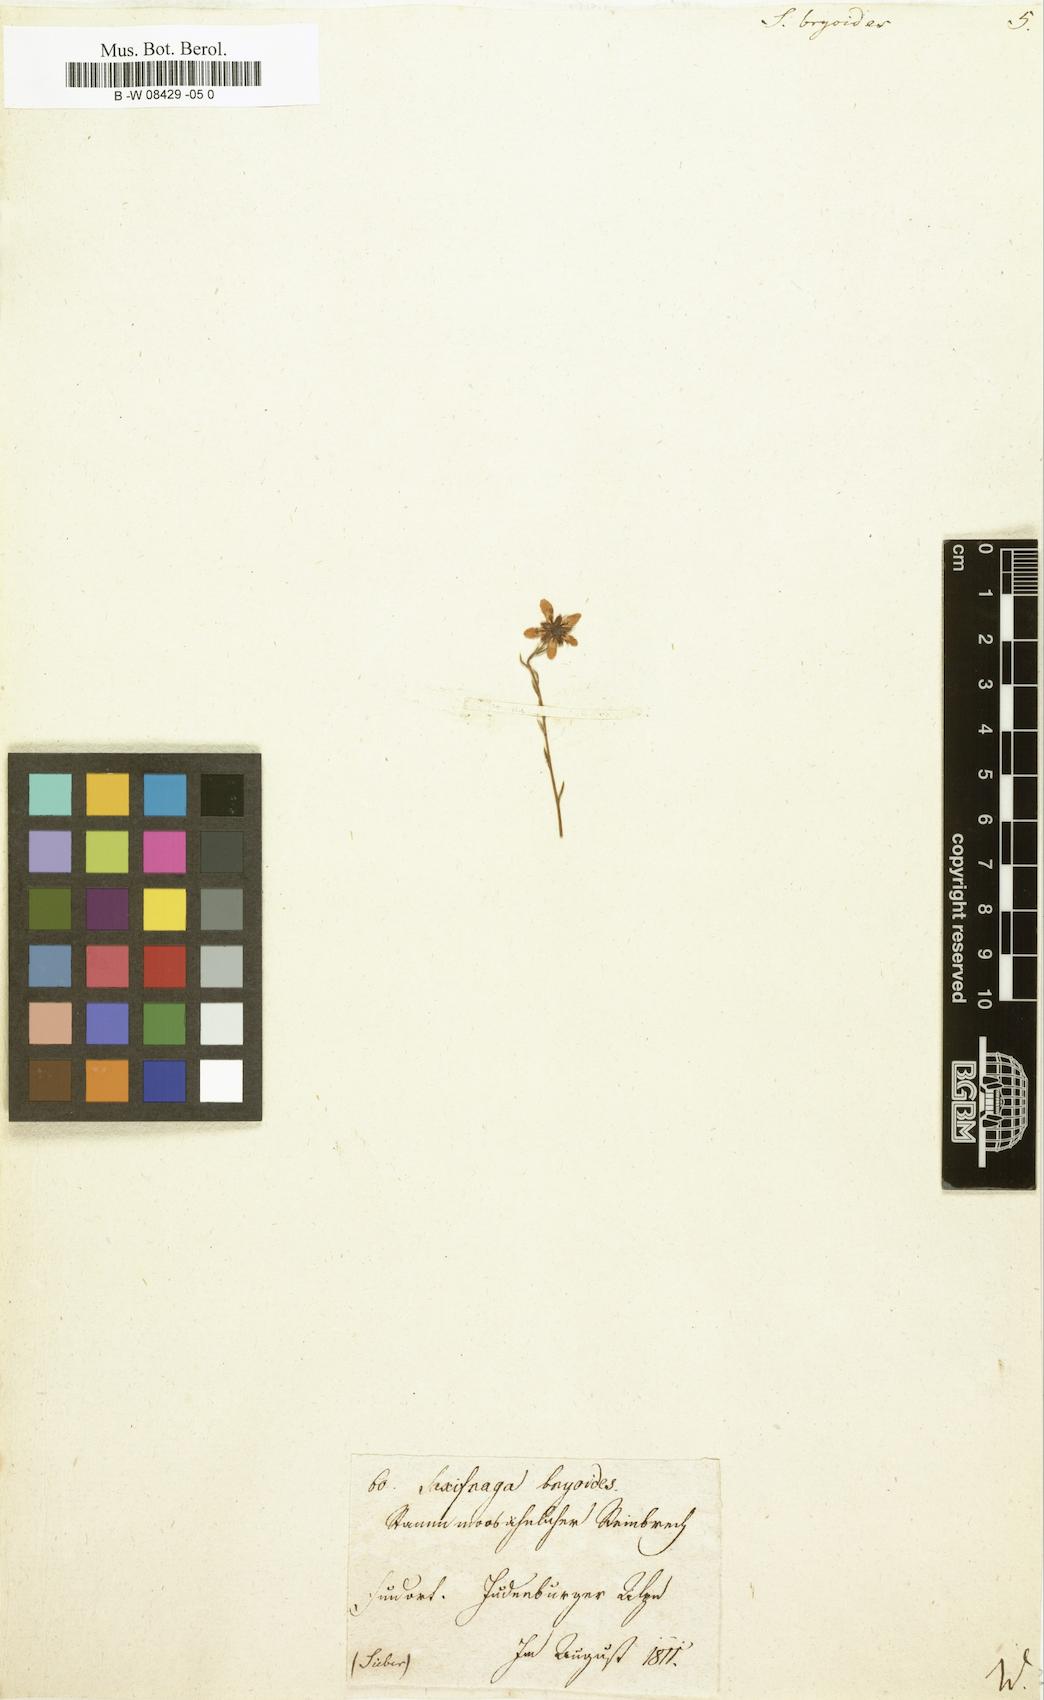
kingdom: Plantae
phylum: Tracheophyta
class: Magnoliopsida
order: Saxifragales
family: Saxifragaceae
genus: Saxifraga
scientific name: Saxifraga bryoides
